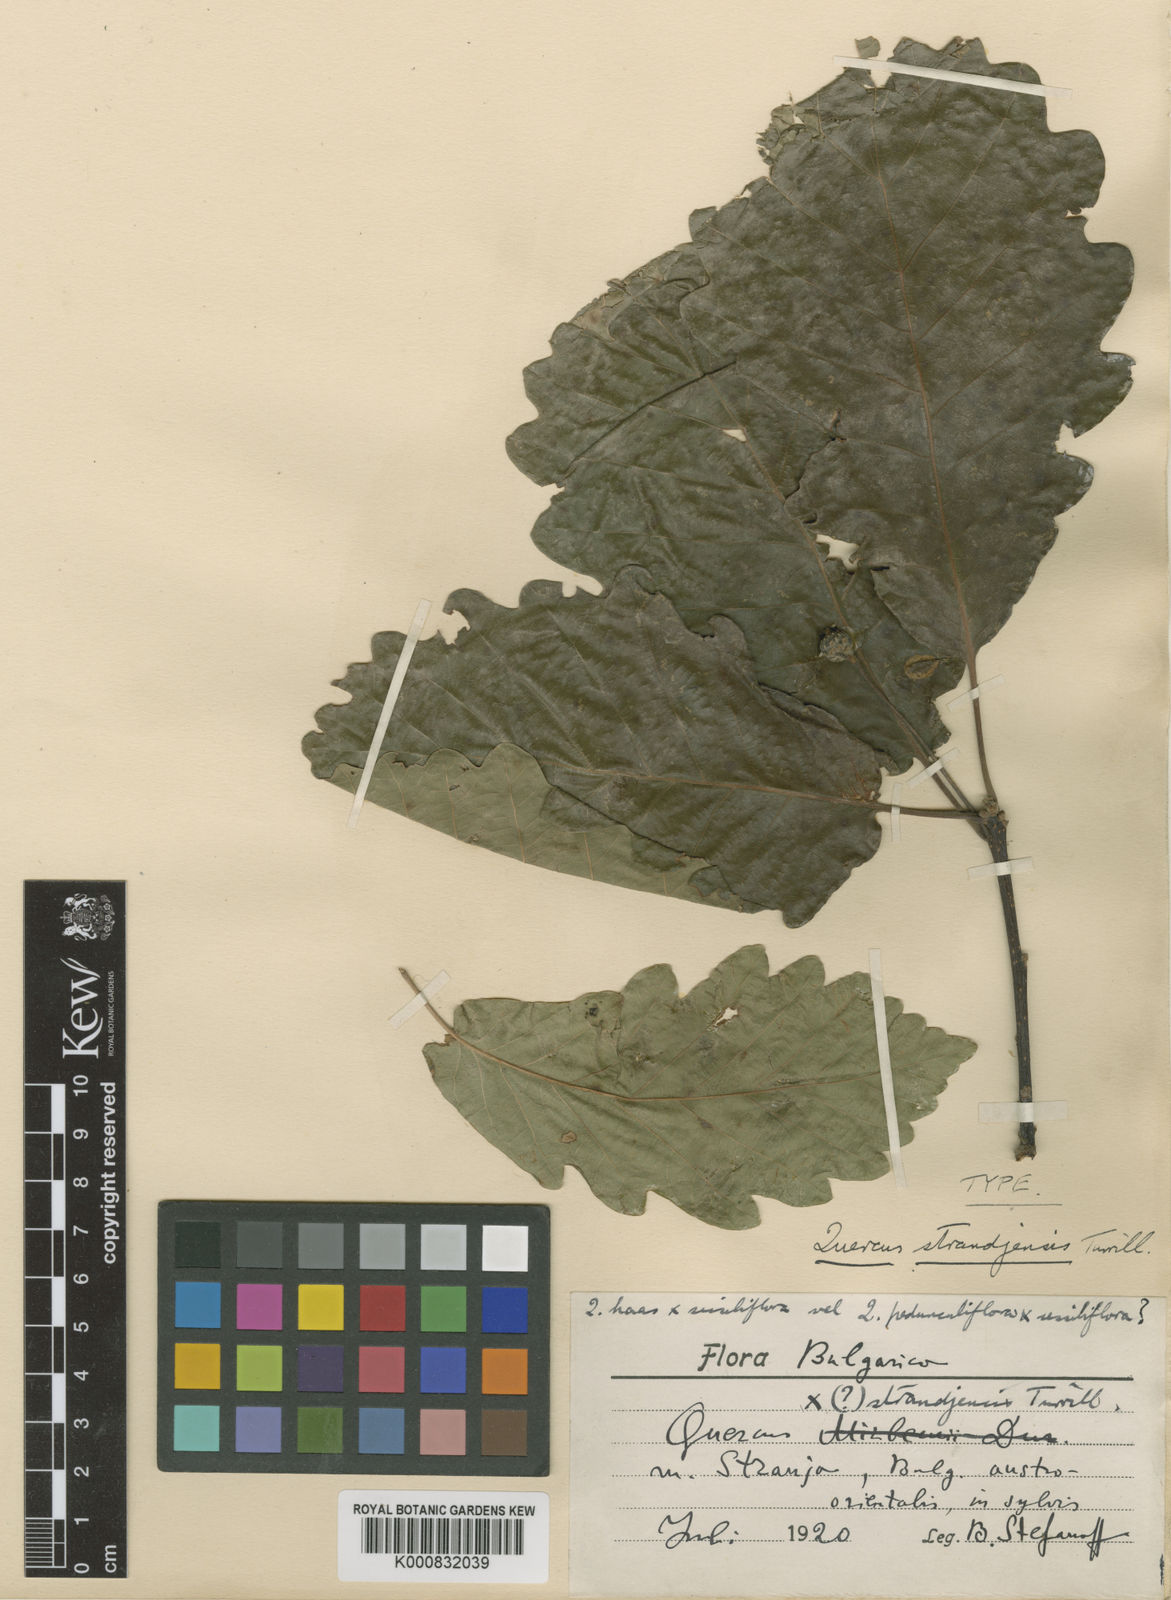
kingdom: Plantae
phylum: Tracheophyta
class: Magnoliopsida
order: Fagales
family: Fagaceae
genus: Quercus
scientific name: Quercus hartwissiana
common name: Strandzha oak
